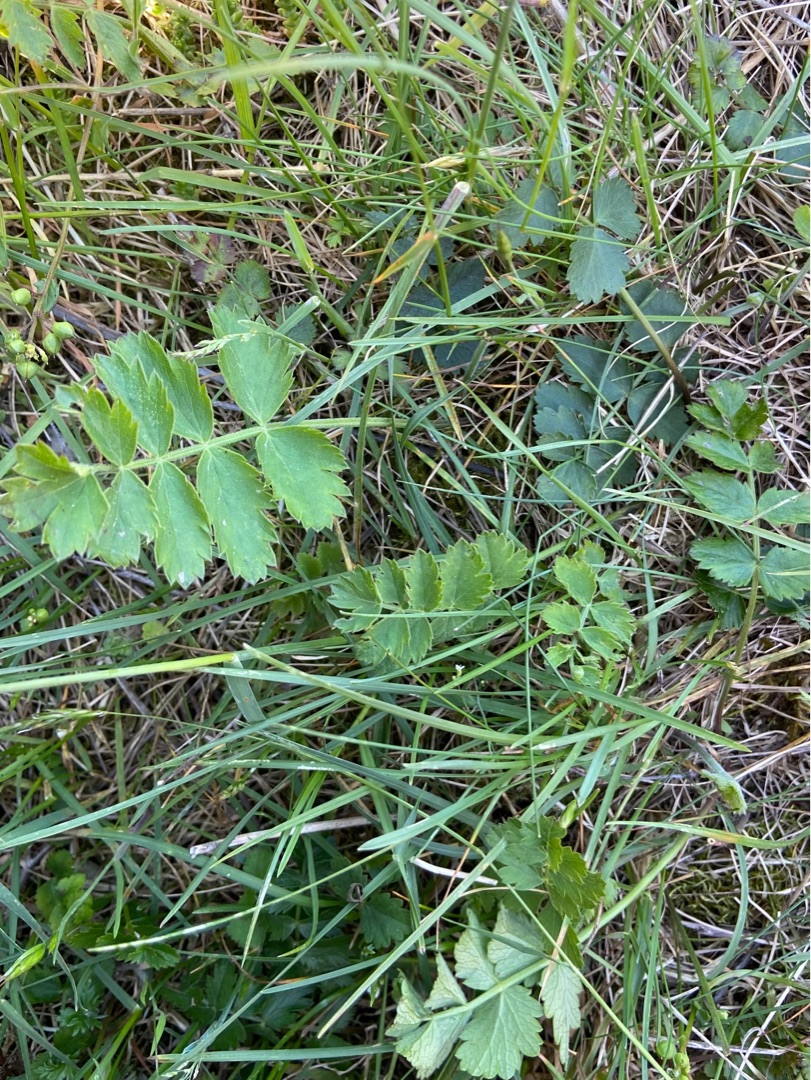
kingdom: Plantae
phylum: Tracheophyta
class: Magnoliopsida
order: Apiales
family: Apiaceae
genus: Pimpinella
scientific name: Pimpinella saxifraga
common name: Almindelig pimpinelle
